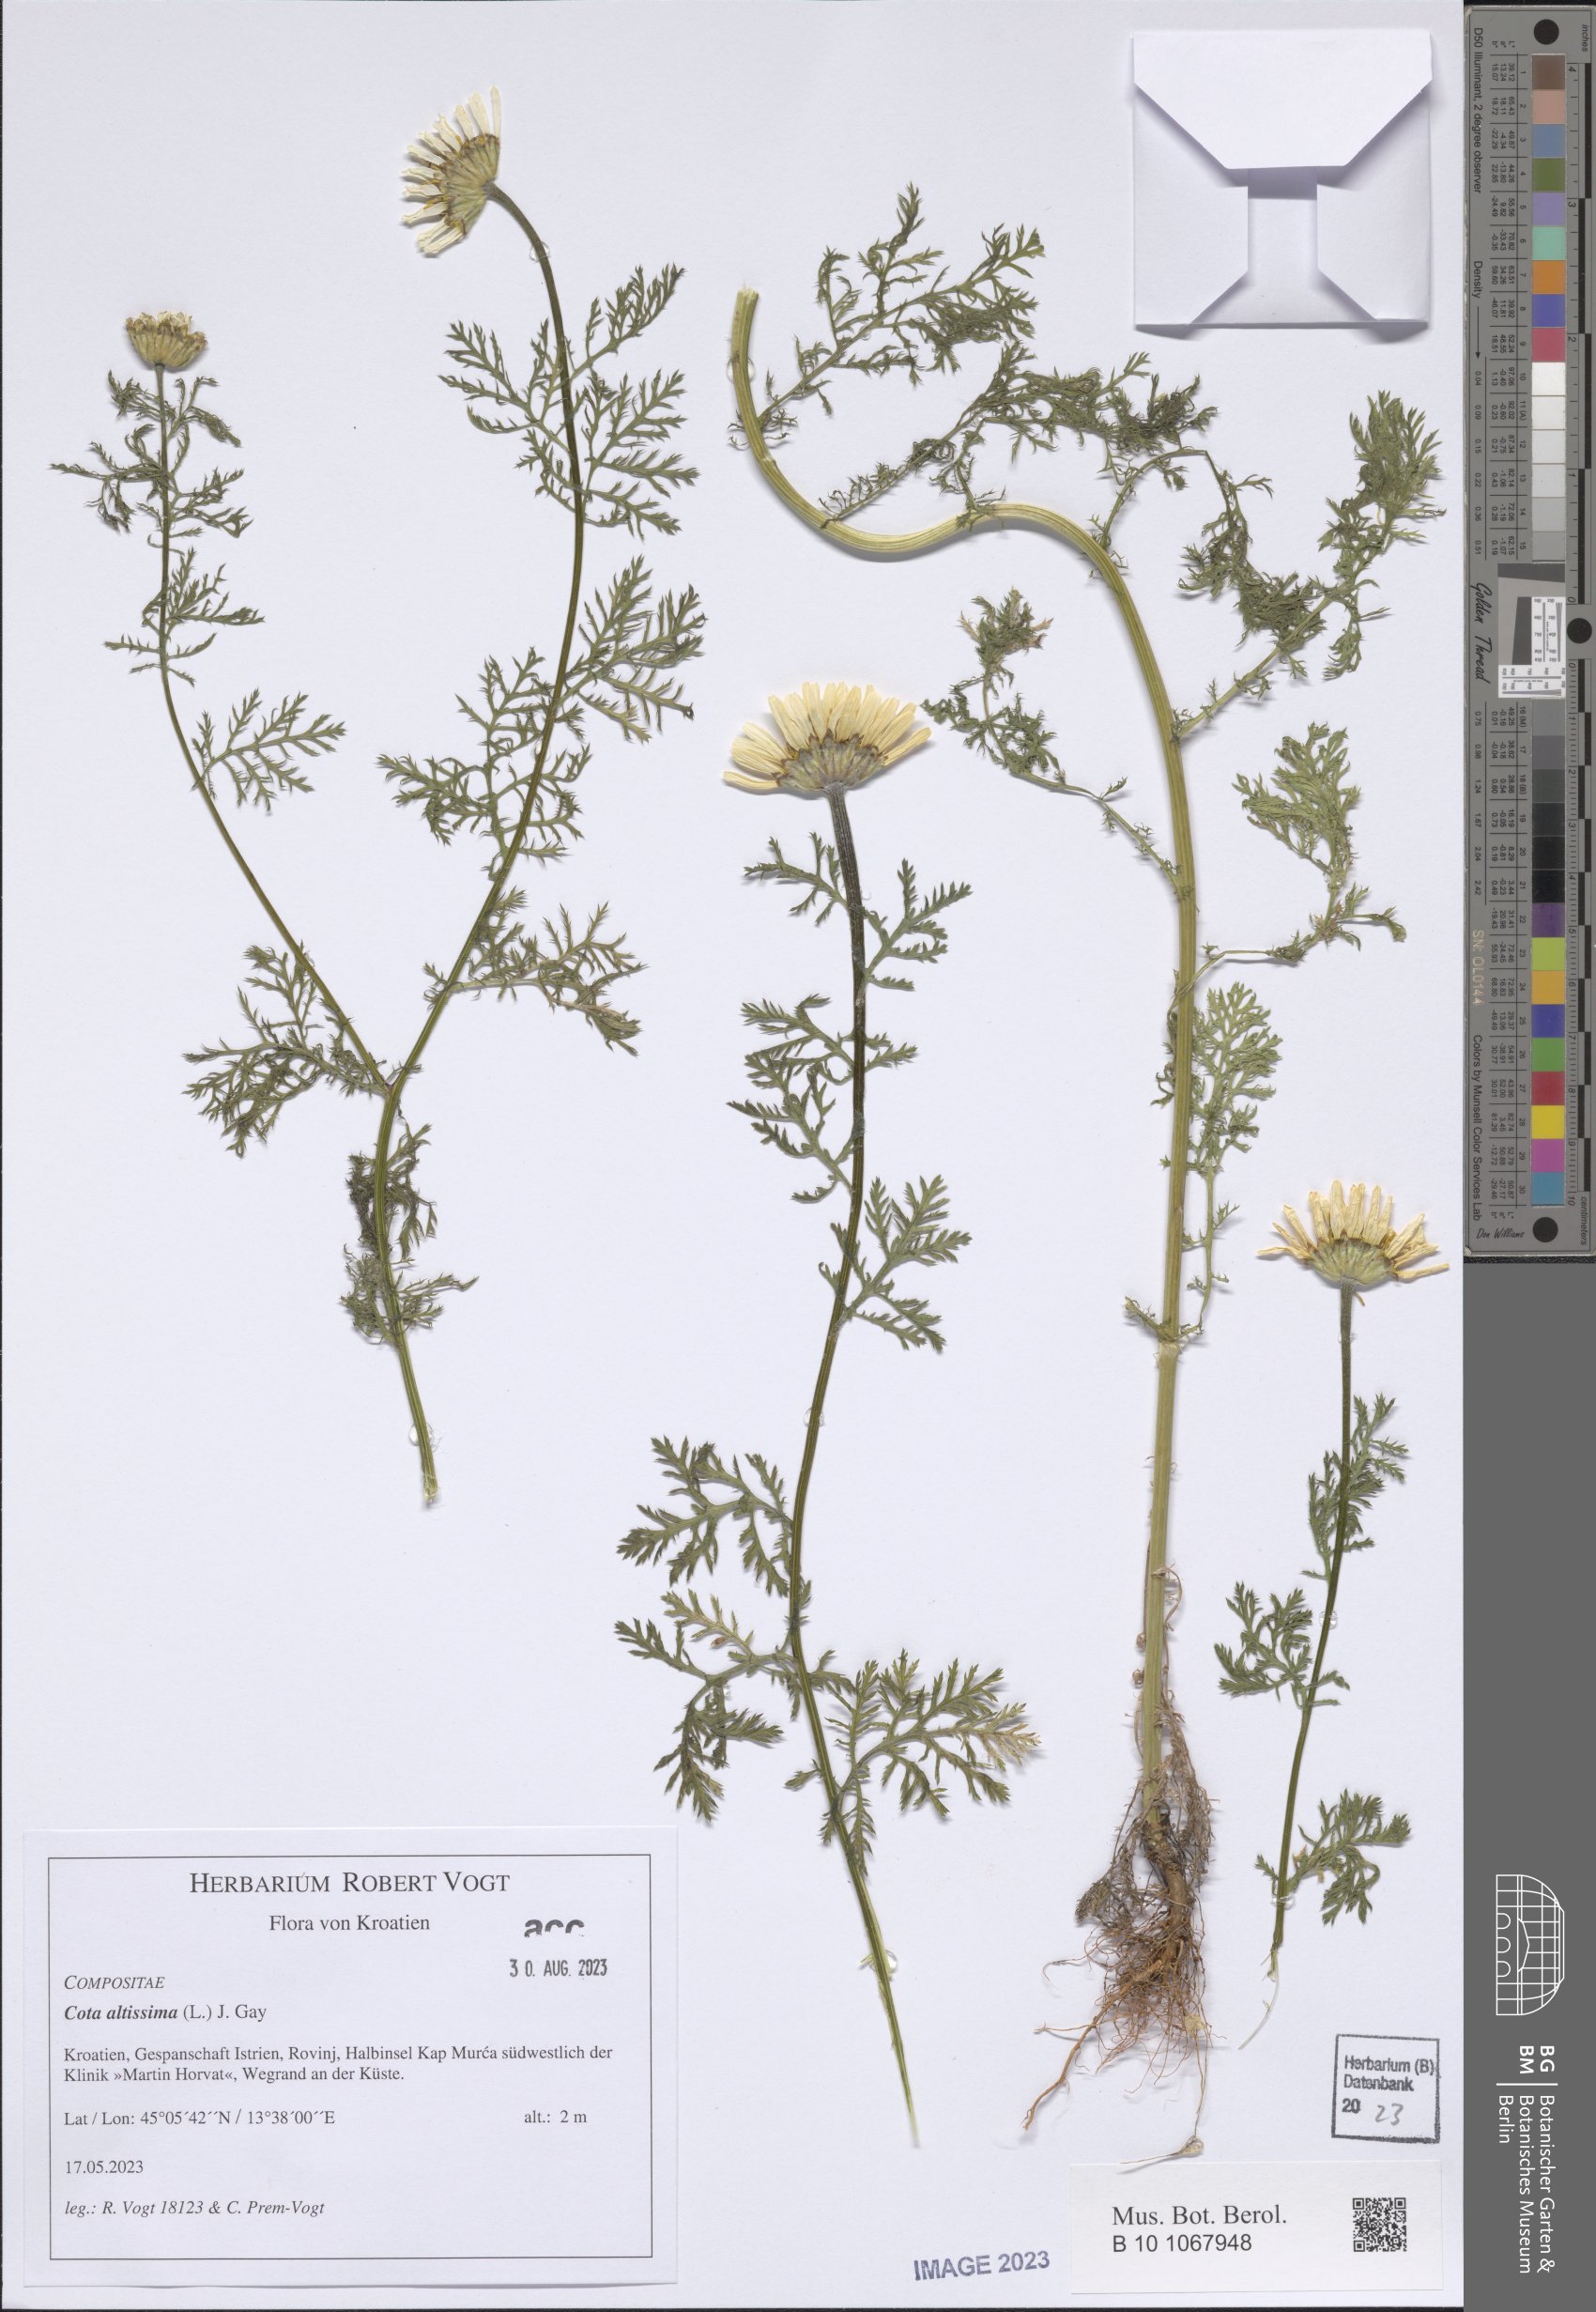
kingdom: Plantae
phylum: Tracheophyta
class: Magnoliopsida
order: Asterales
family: Asteraceae
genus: Cota
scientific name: Cota altissima
